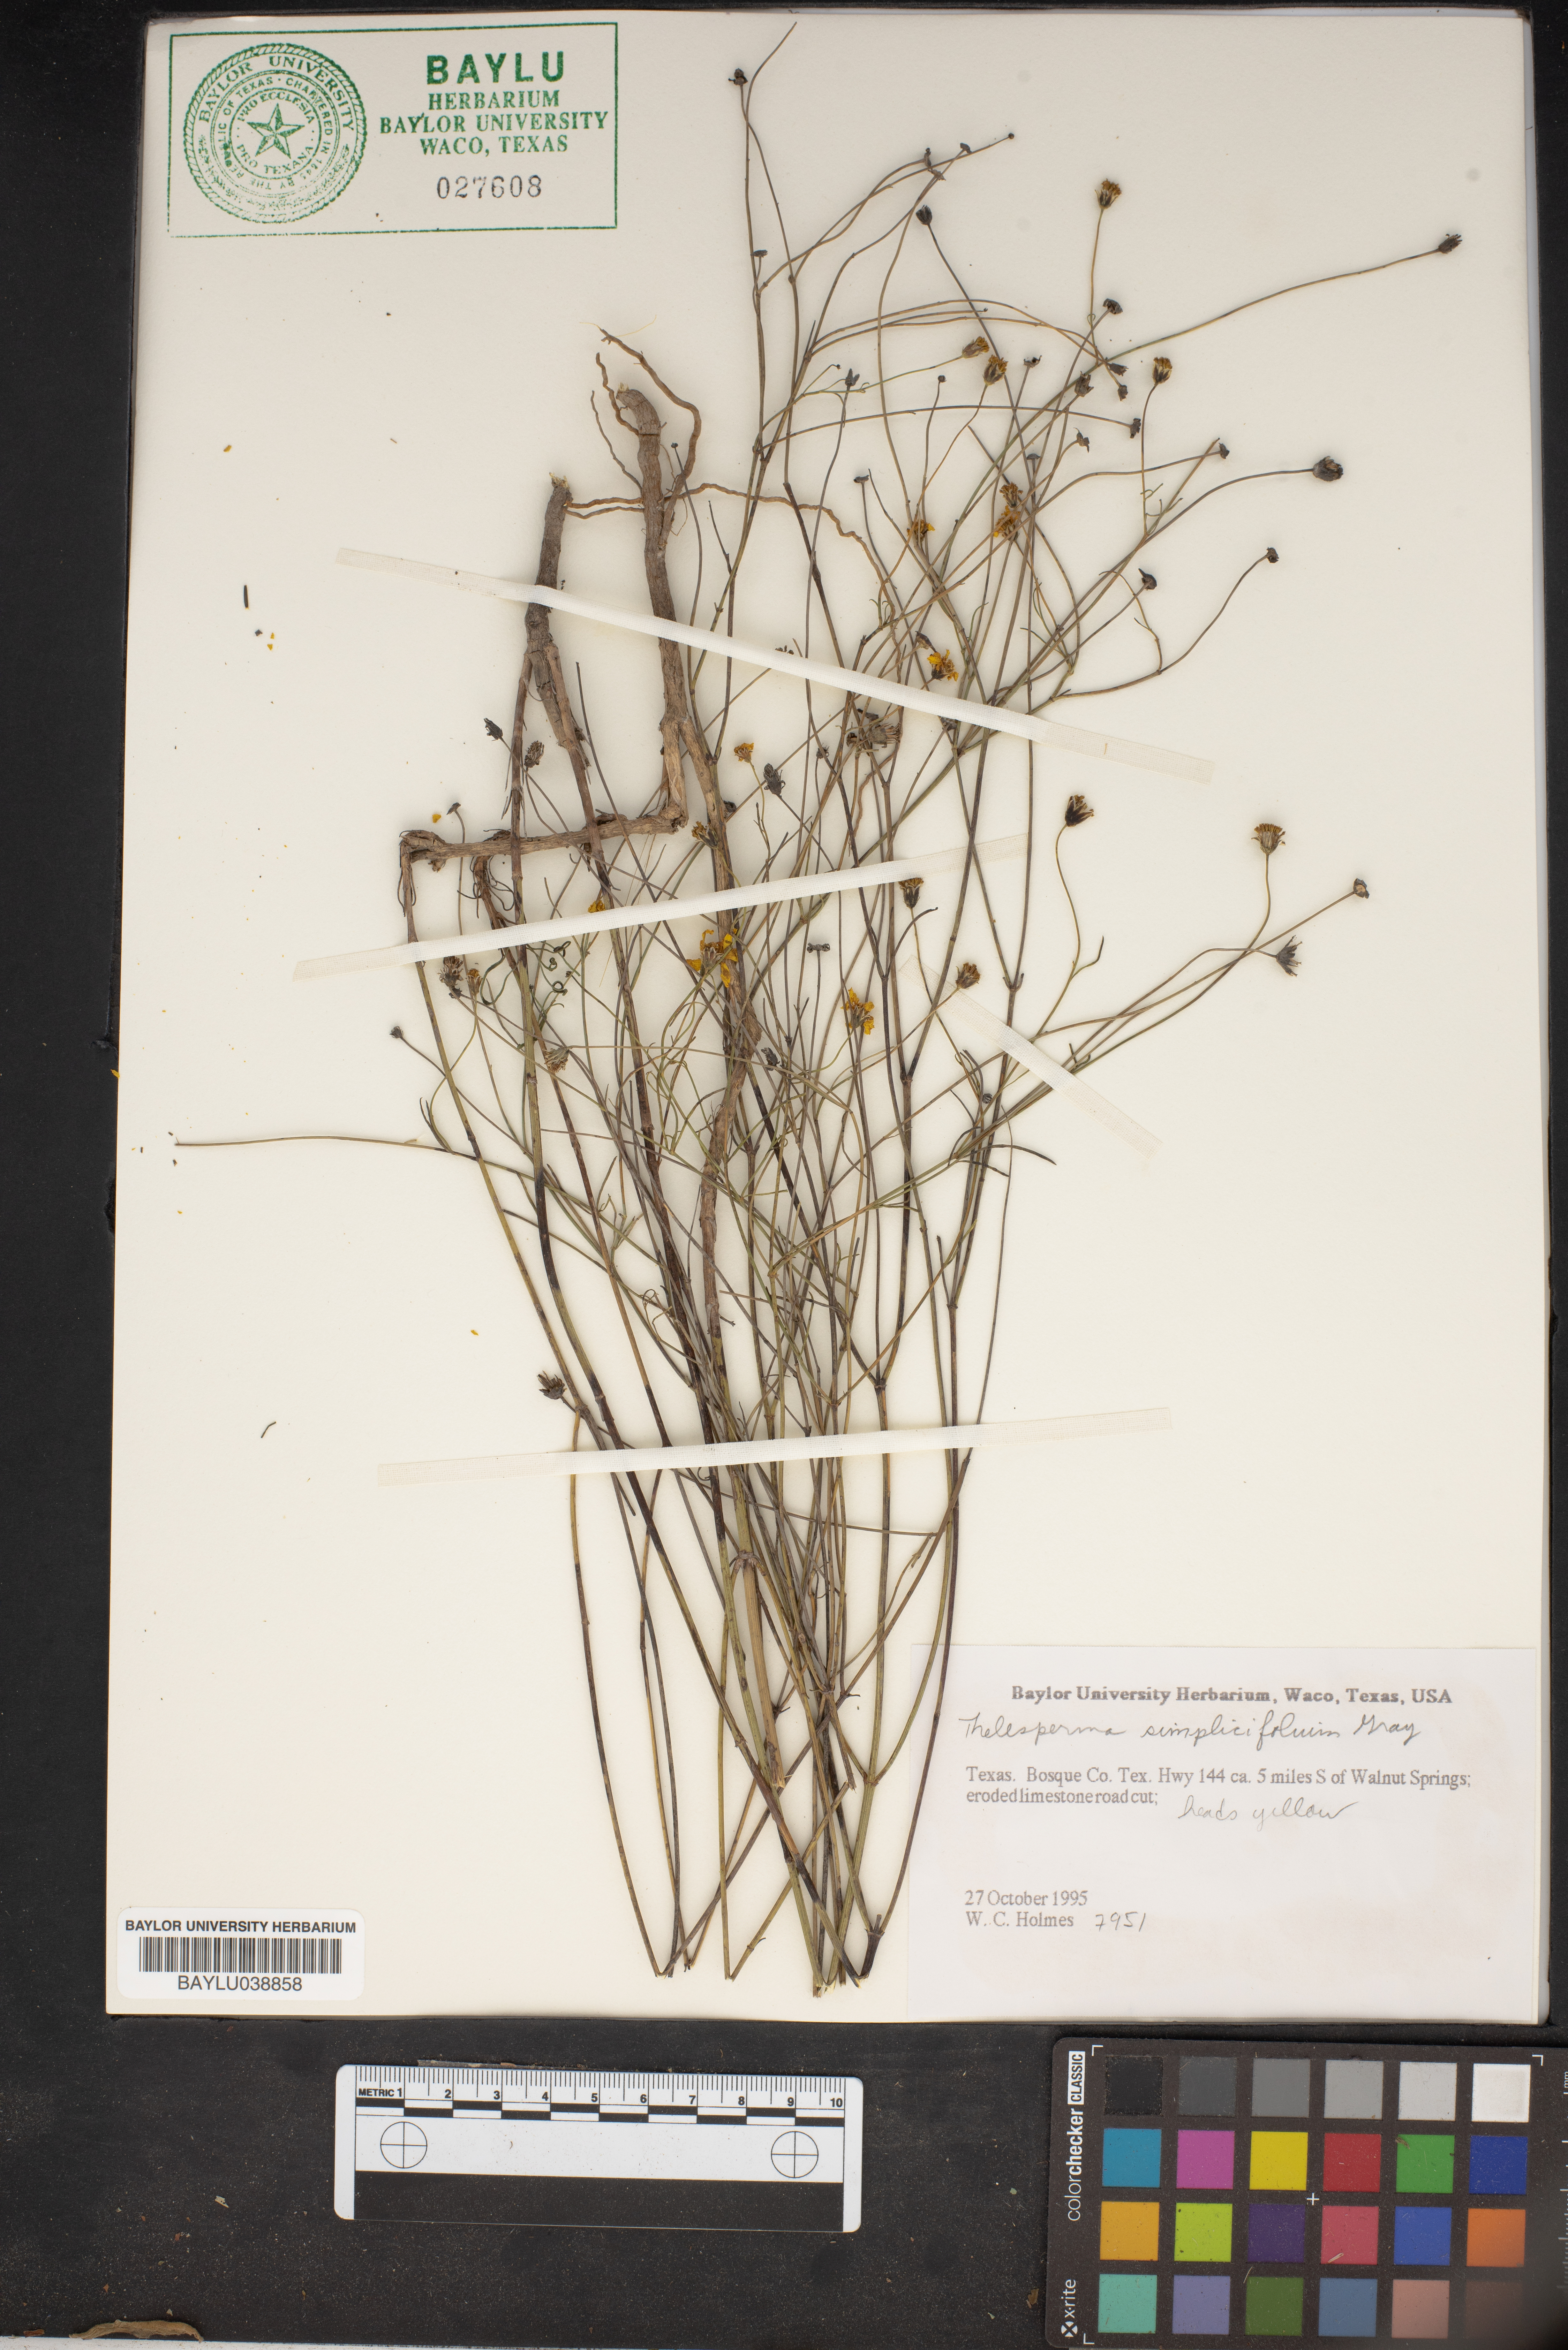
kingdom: Plantae
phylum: Tracheophyta
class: Magnoliopsida
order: Asterales
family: Asteraceae
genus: Thelesperma
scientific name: Thelesperma simplicifolium
